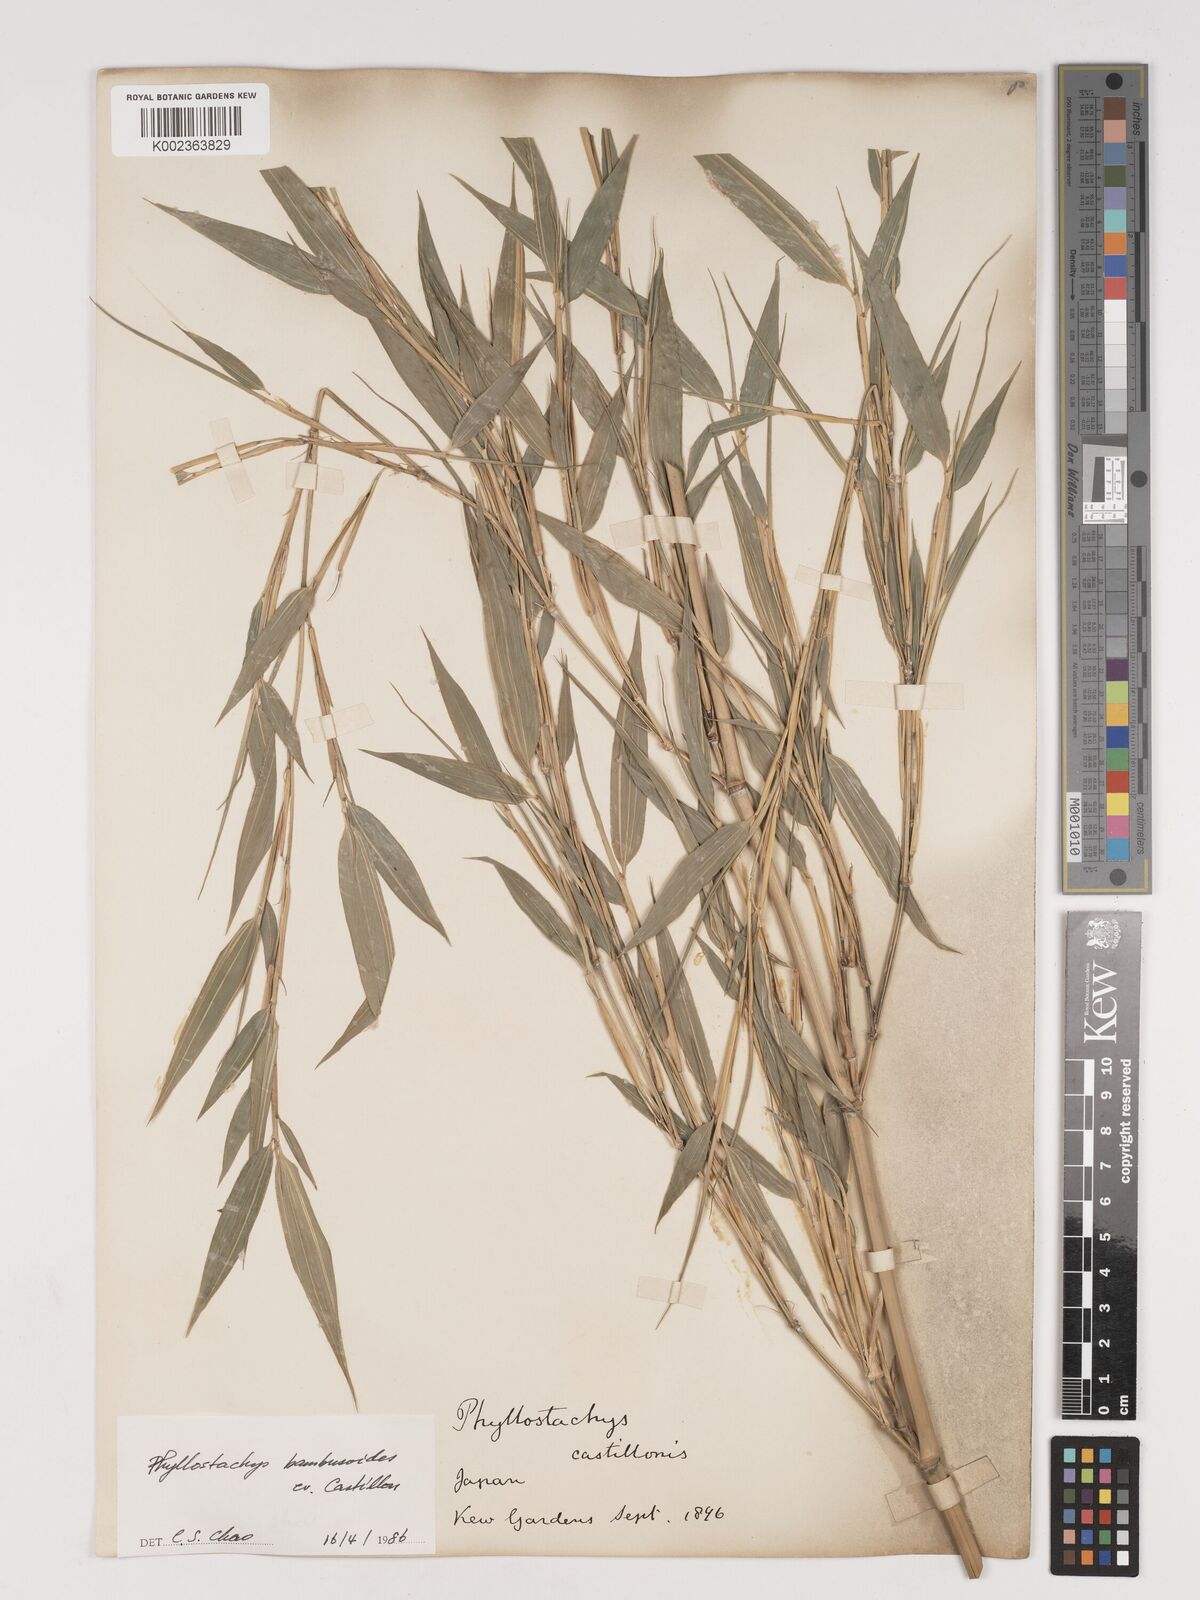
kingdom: Plantae
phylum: Tracheophyta
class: Liliopsida
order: Poales
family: Poaceae
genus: Phyllostachys
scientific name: Phyllostachys reticulata
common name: Bamboo
